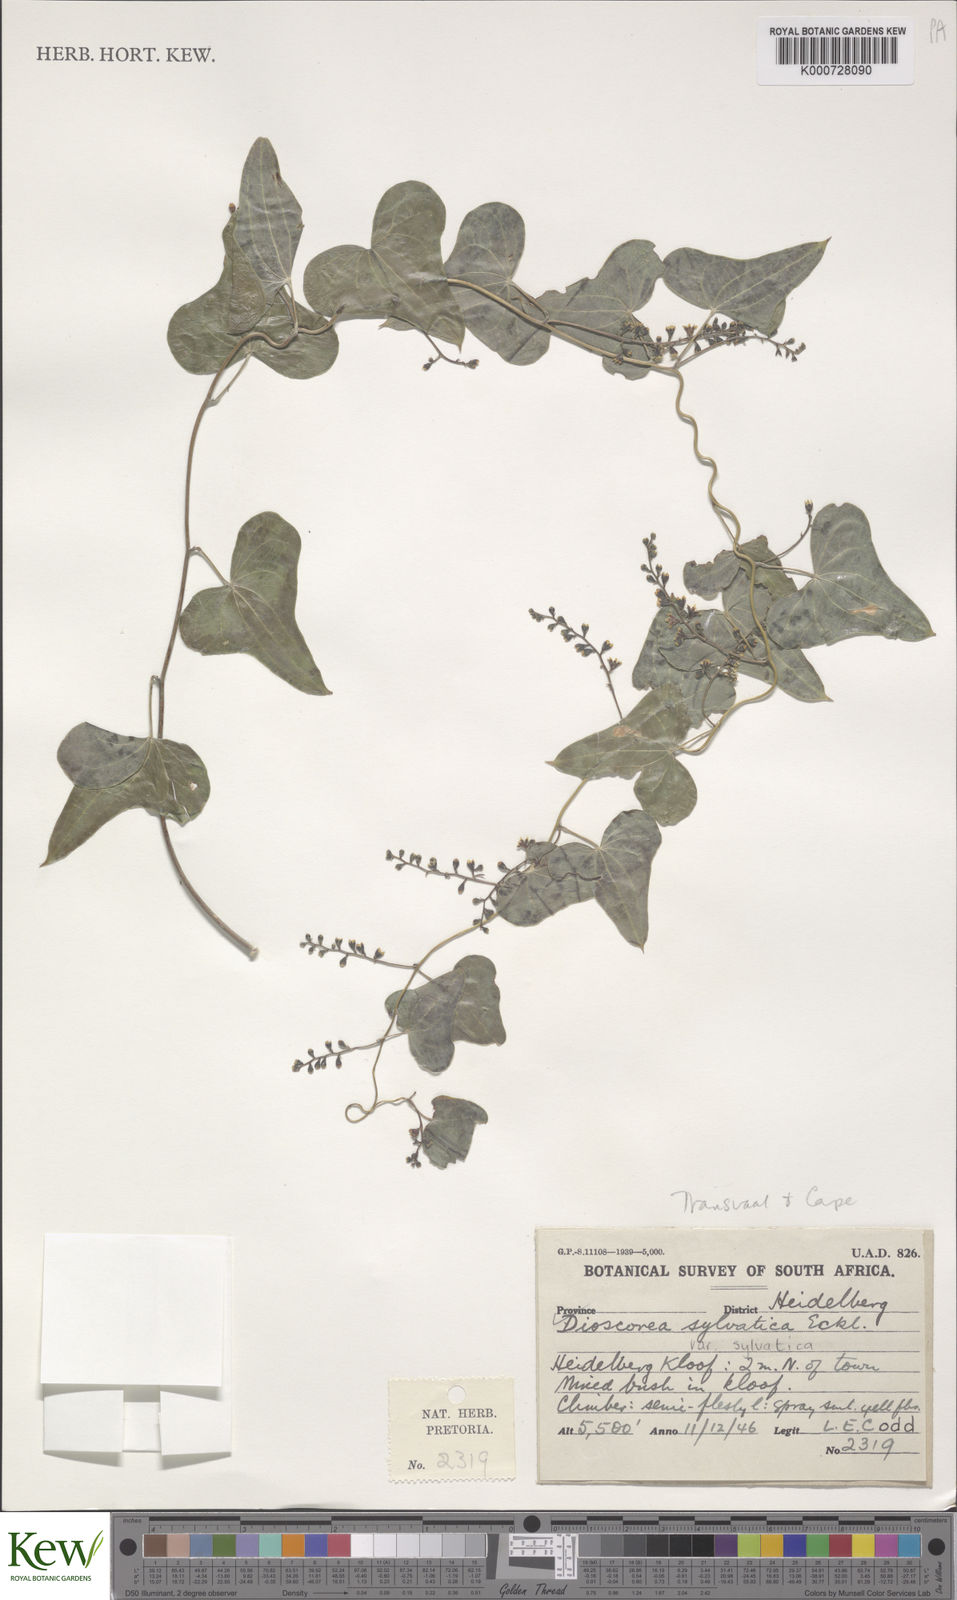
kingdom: Plantae
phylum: Tracheophyta
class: Liliopsida
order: Dioscoreales
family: Dioscoreaceae
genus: Dioscorea
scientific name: Dioscorea sylvatica
